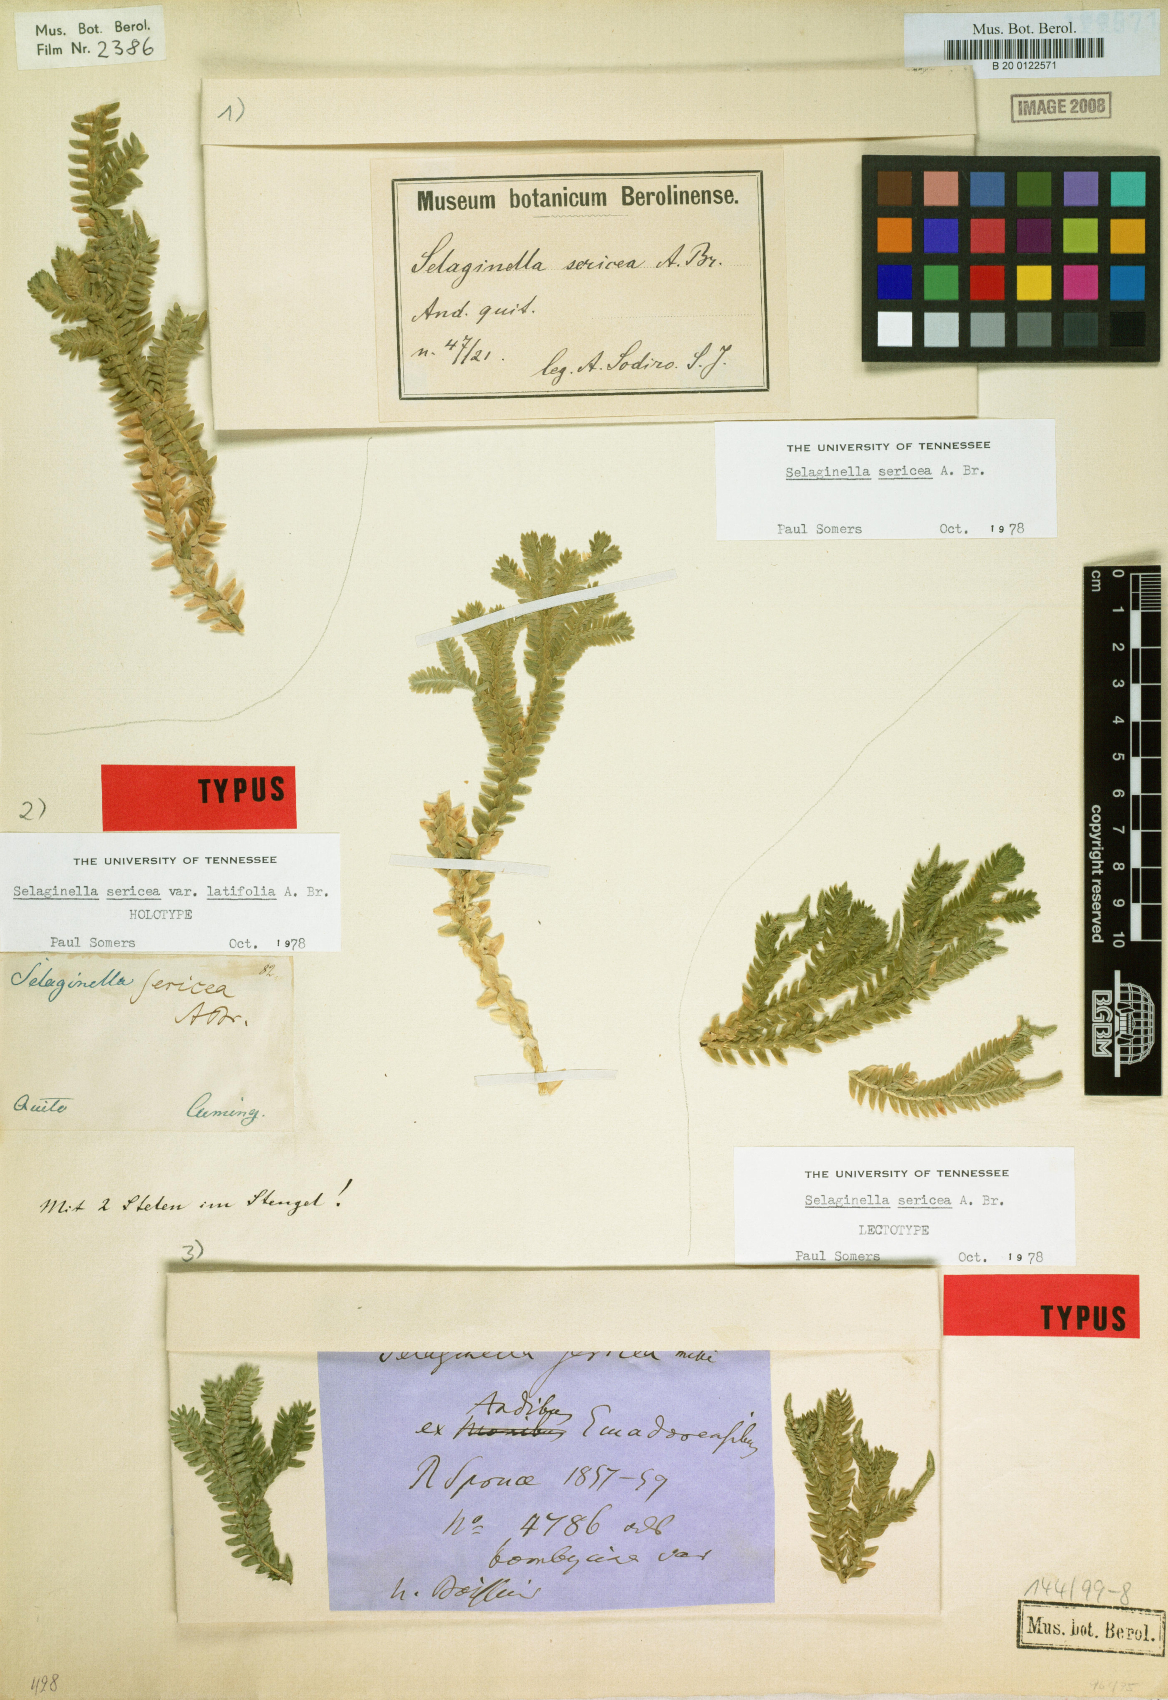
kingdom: Plantae
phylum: Tracheophyta
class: Lycopodiopsida
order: Selaginellales
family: Selaginellaceae
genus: Selaginella
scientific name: Selaginella sericea
